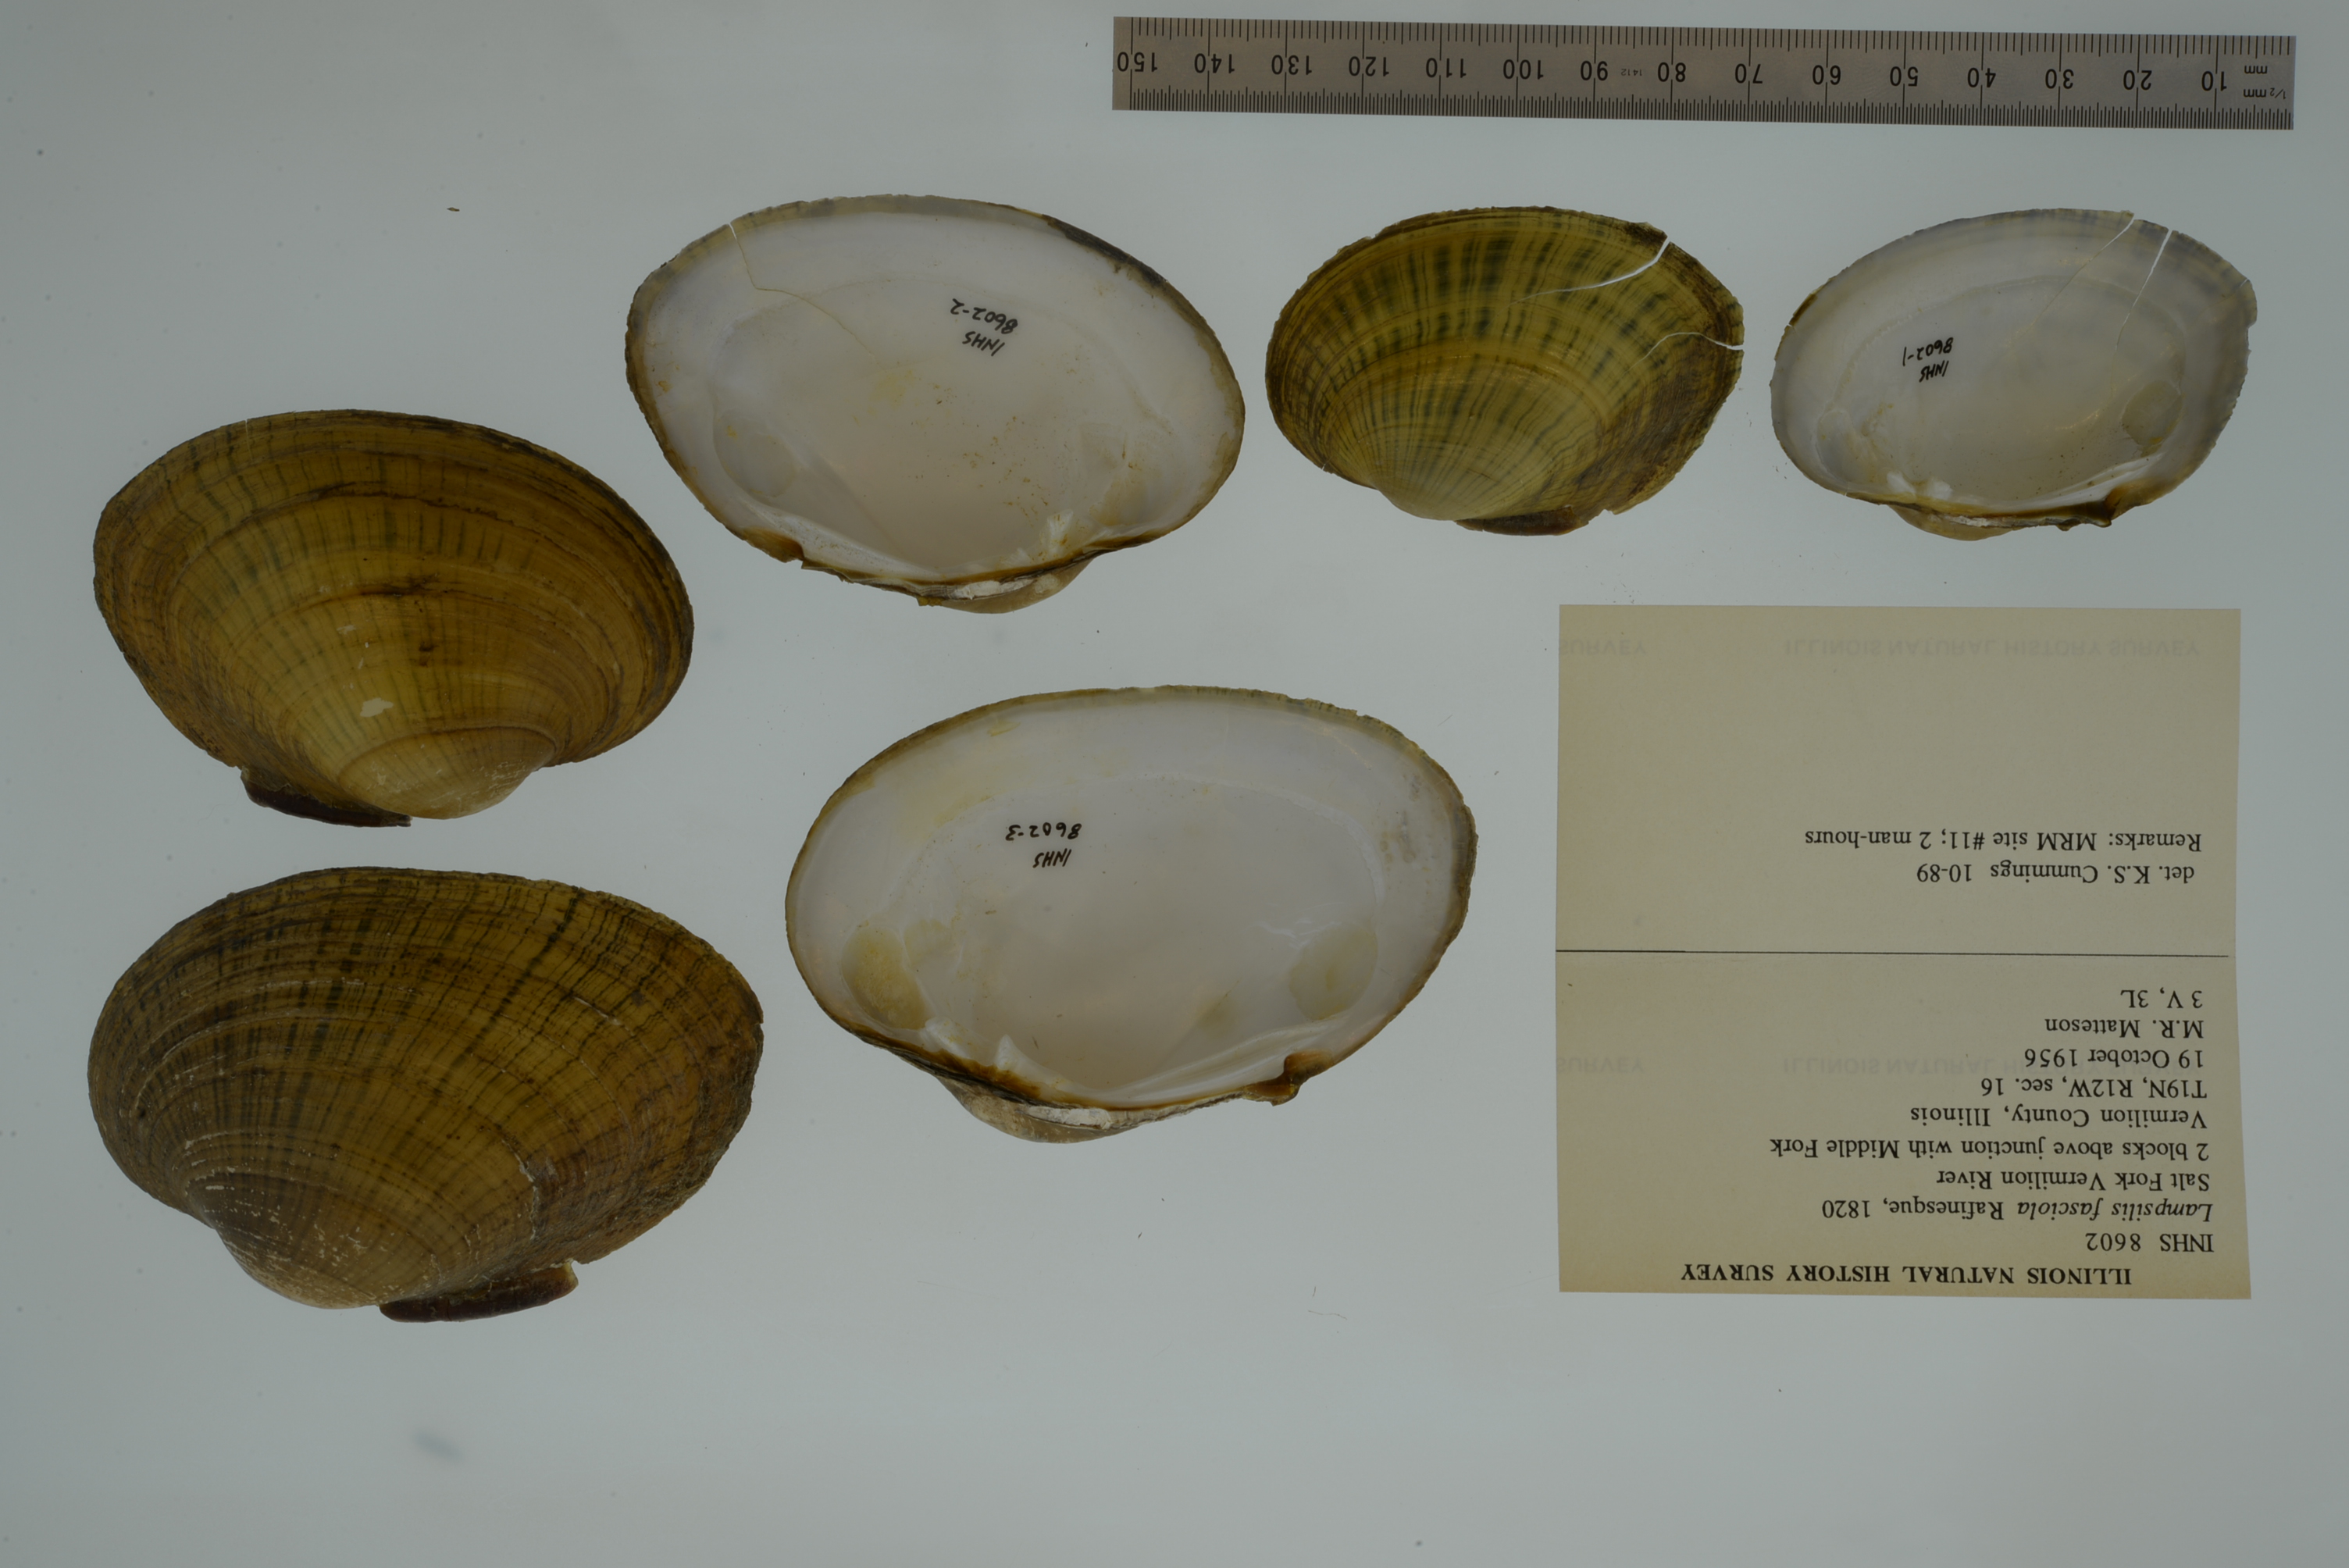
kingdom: Animalia
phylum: Mollusca
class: Bivalvia
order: Unionida
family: Unionidae
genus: Lampsilis
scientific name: Lampsilis fasciola
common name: Wavyrayed lampmussel
